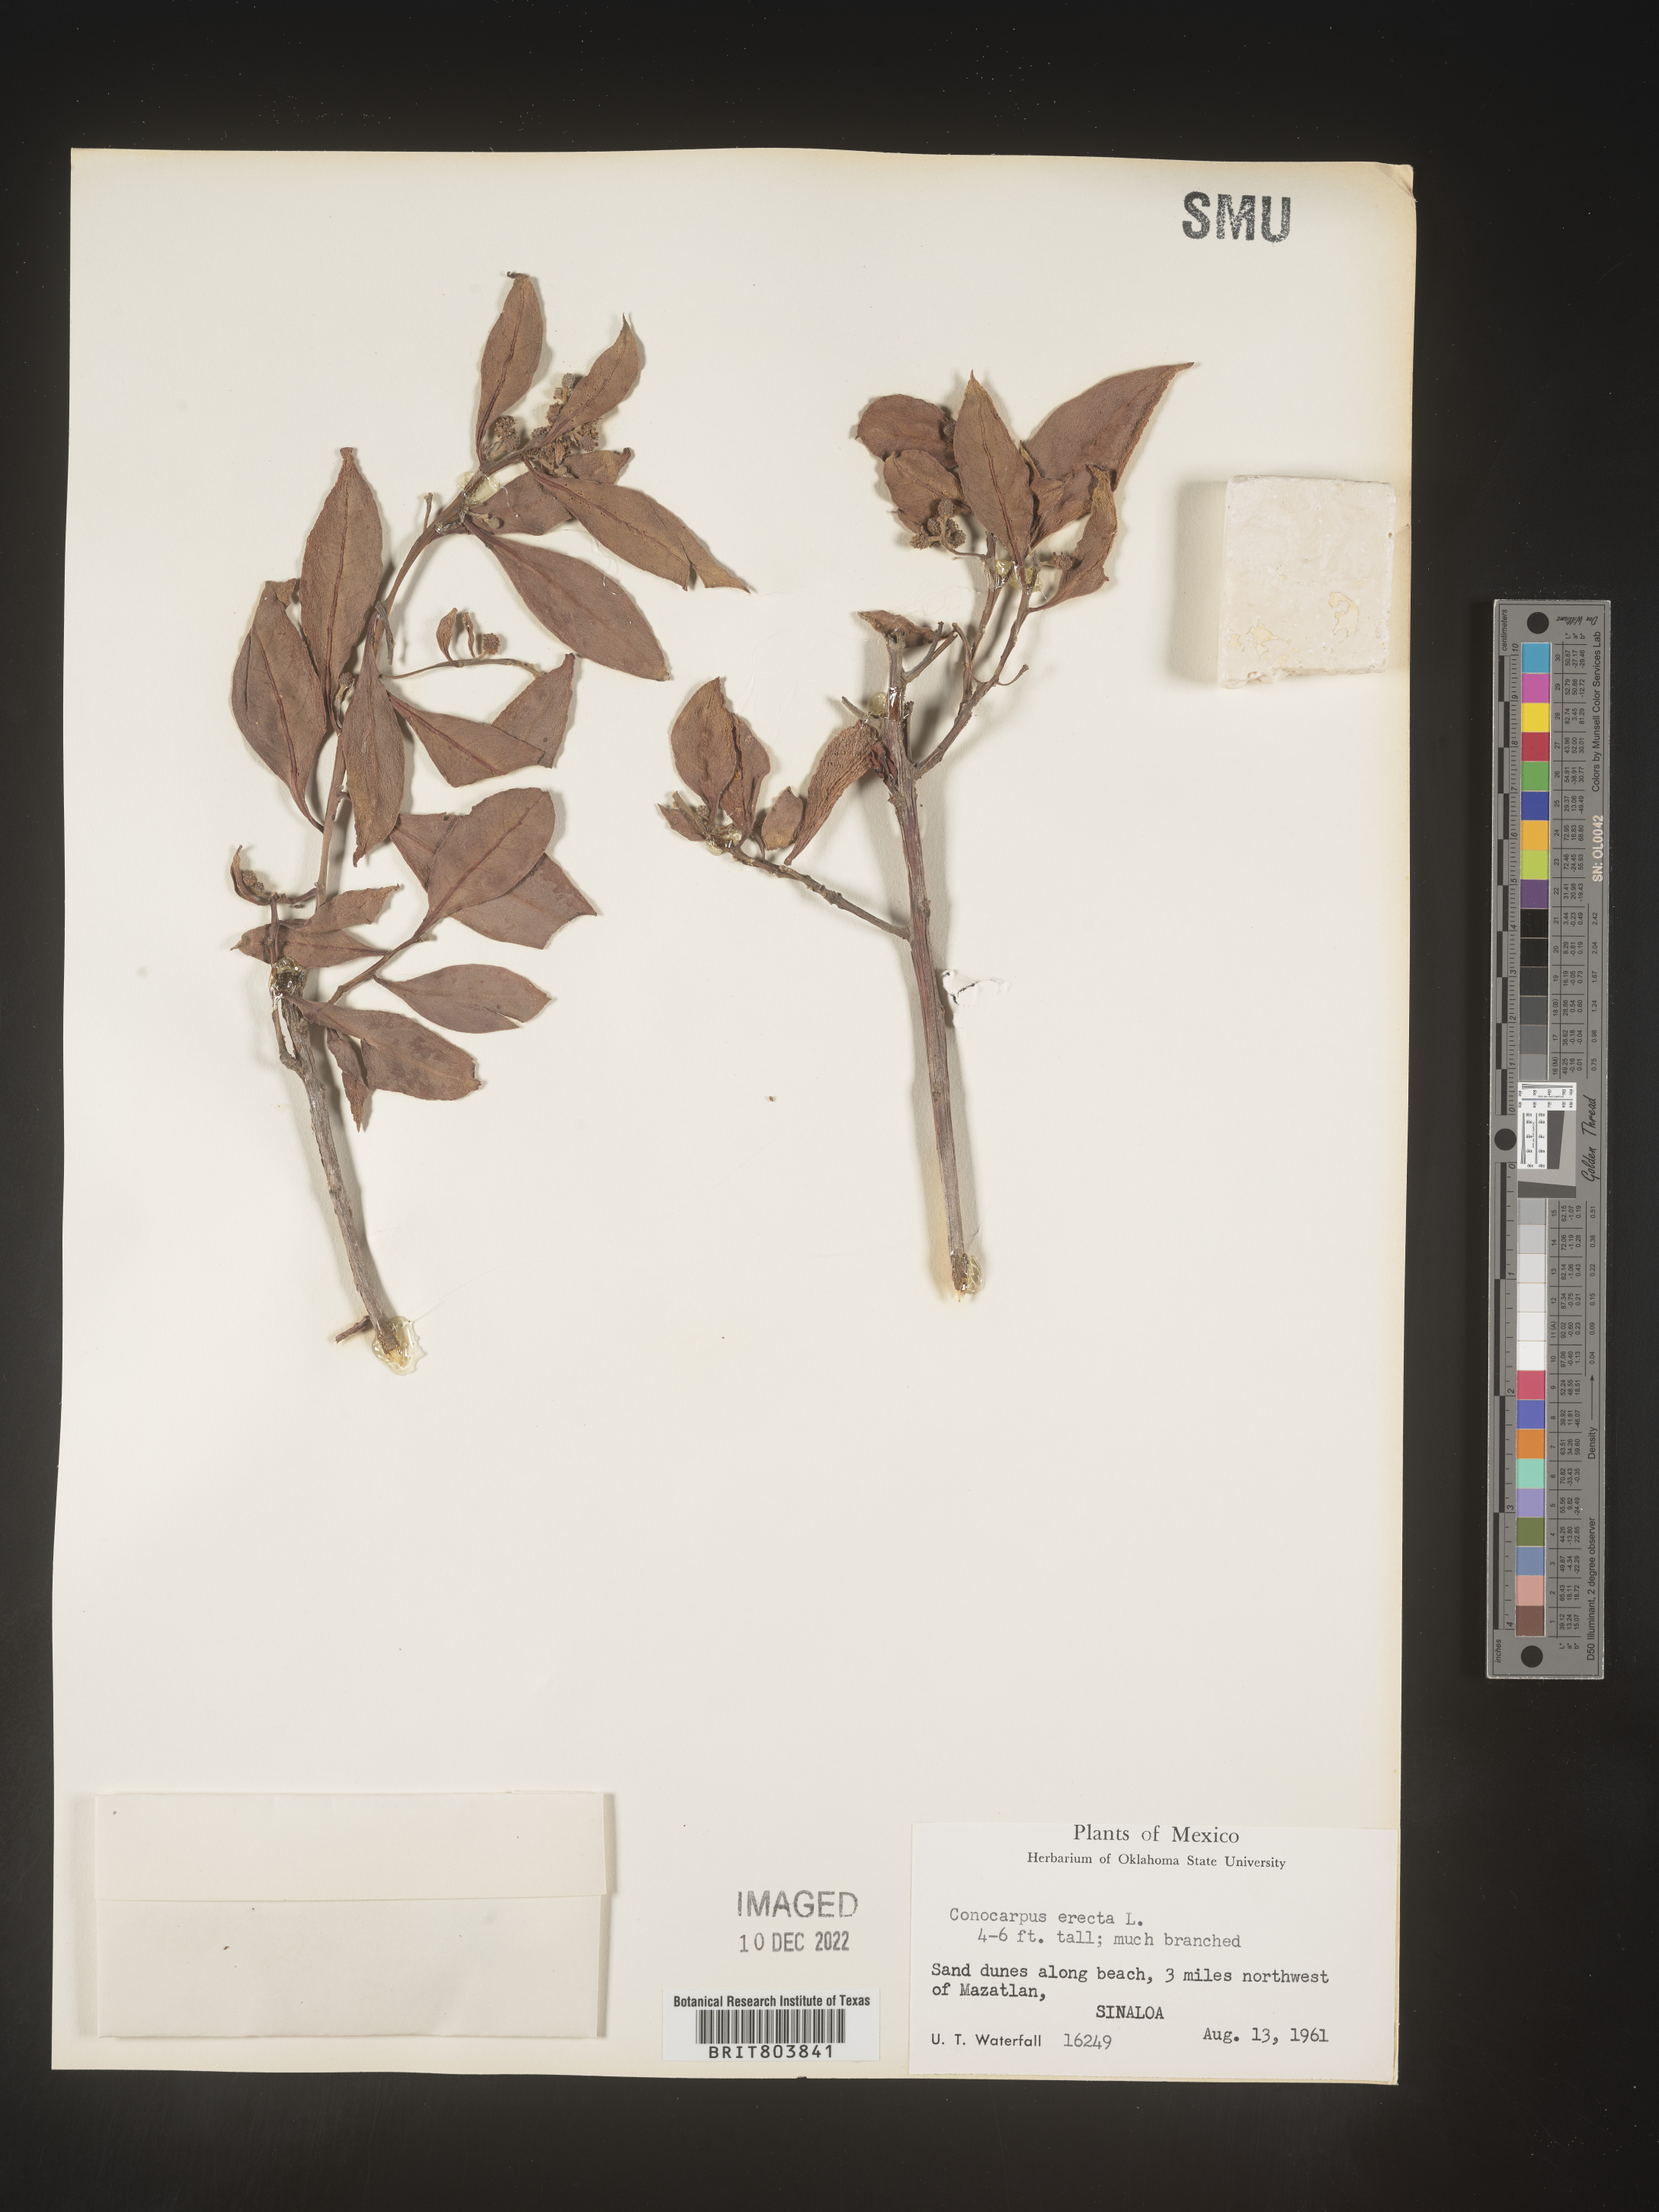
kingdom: Plantae
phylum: Tracheophyta
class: Magnoliopsida
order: Myrtales
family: Combretaceae
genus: Conocarpus
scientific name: Conocarpus
